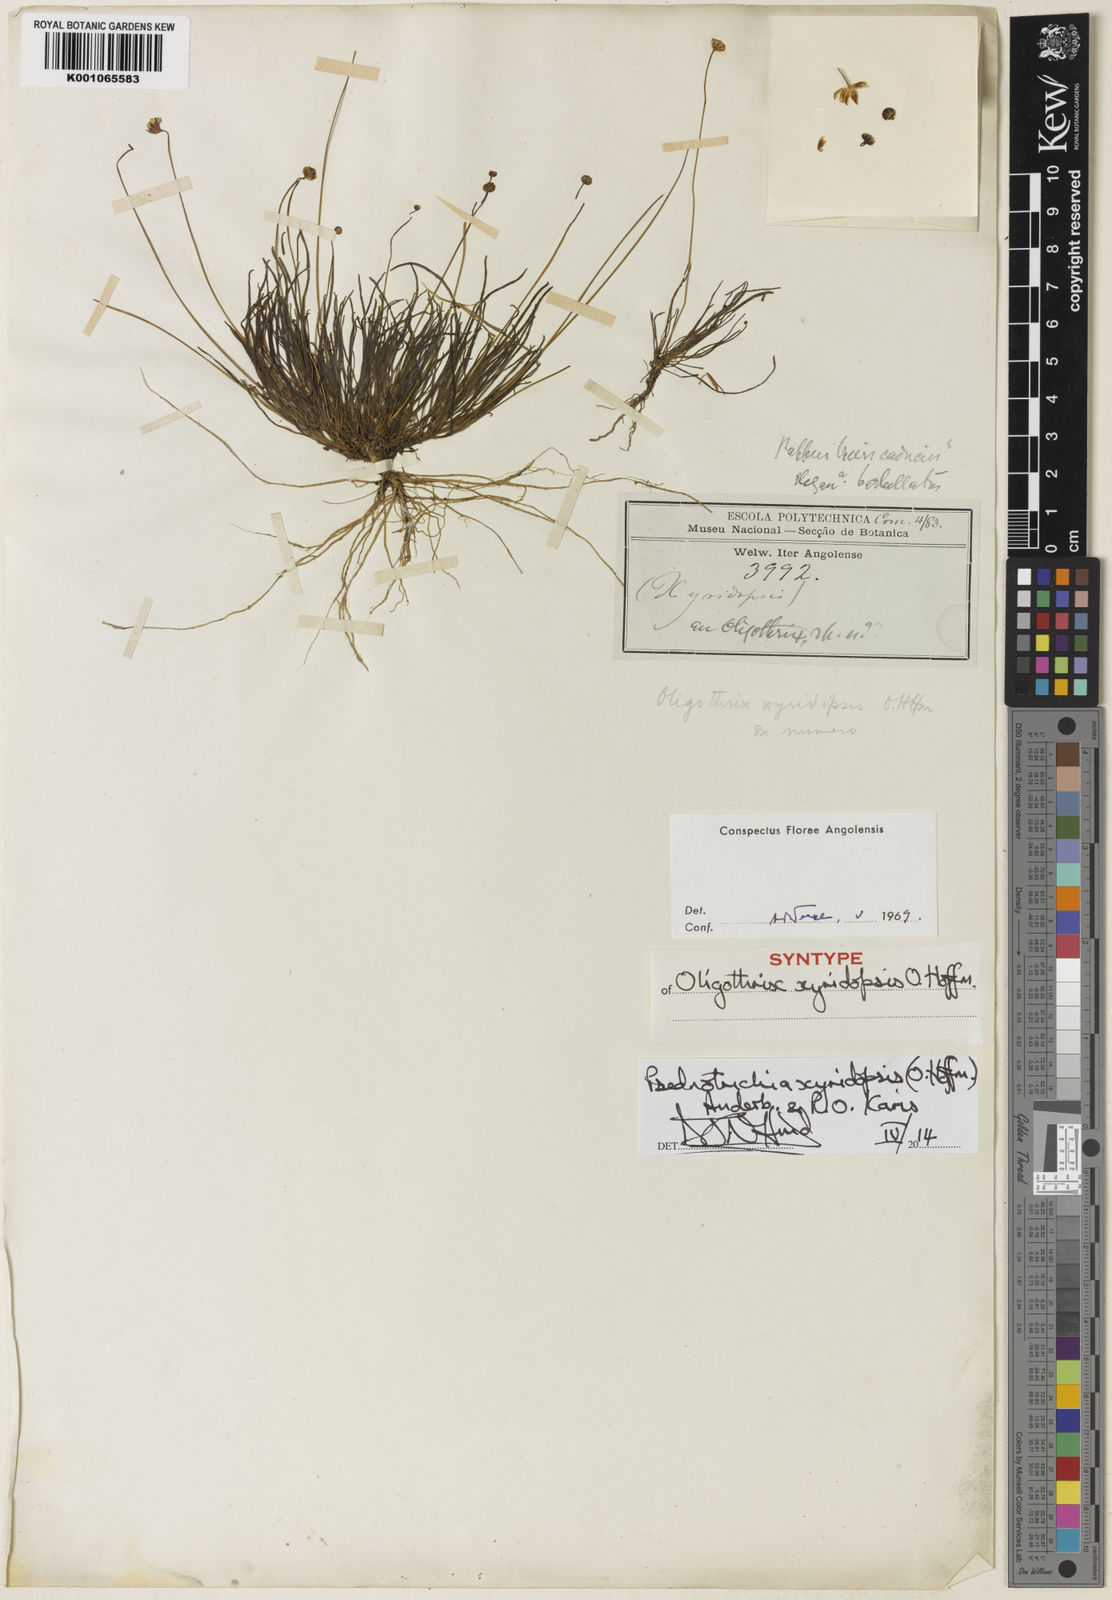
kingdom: Plantae
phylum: Tracheophyta
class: Magnoliopsida
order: Asterales
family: Asteraceae
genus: Psednotrichia
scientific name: Psednotrichia xyridopsis
